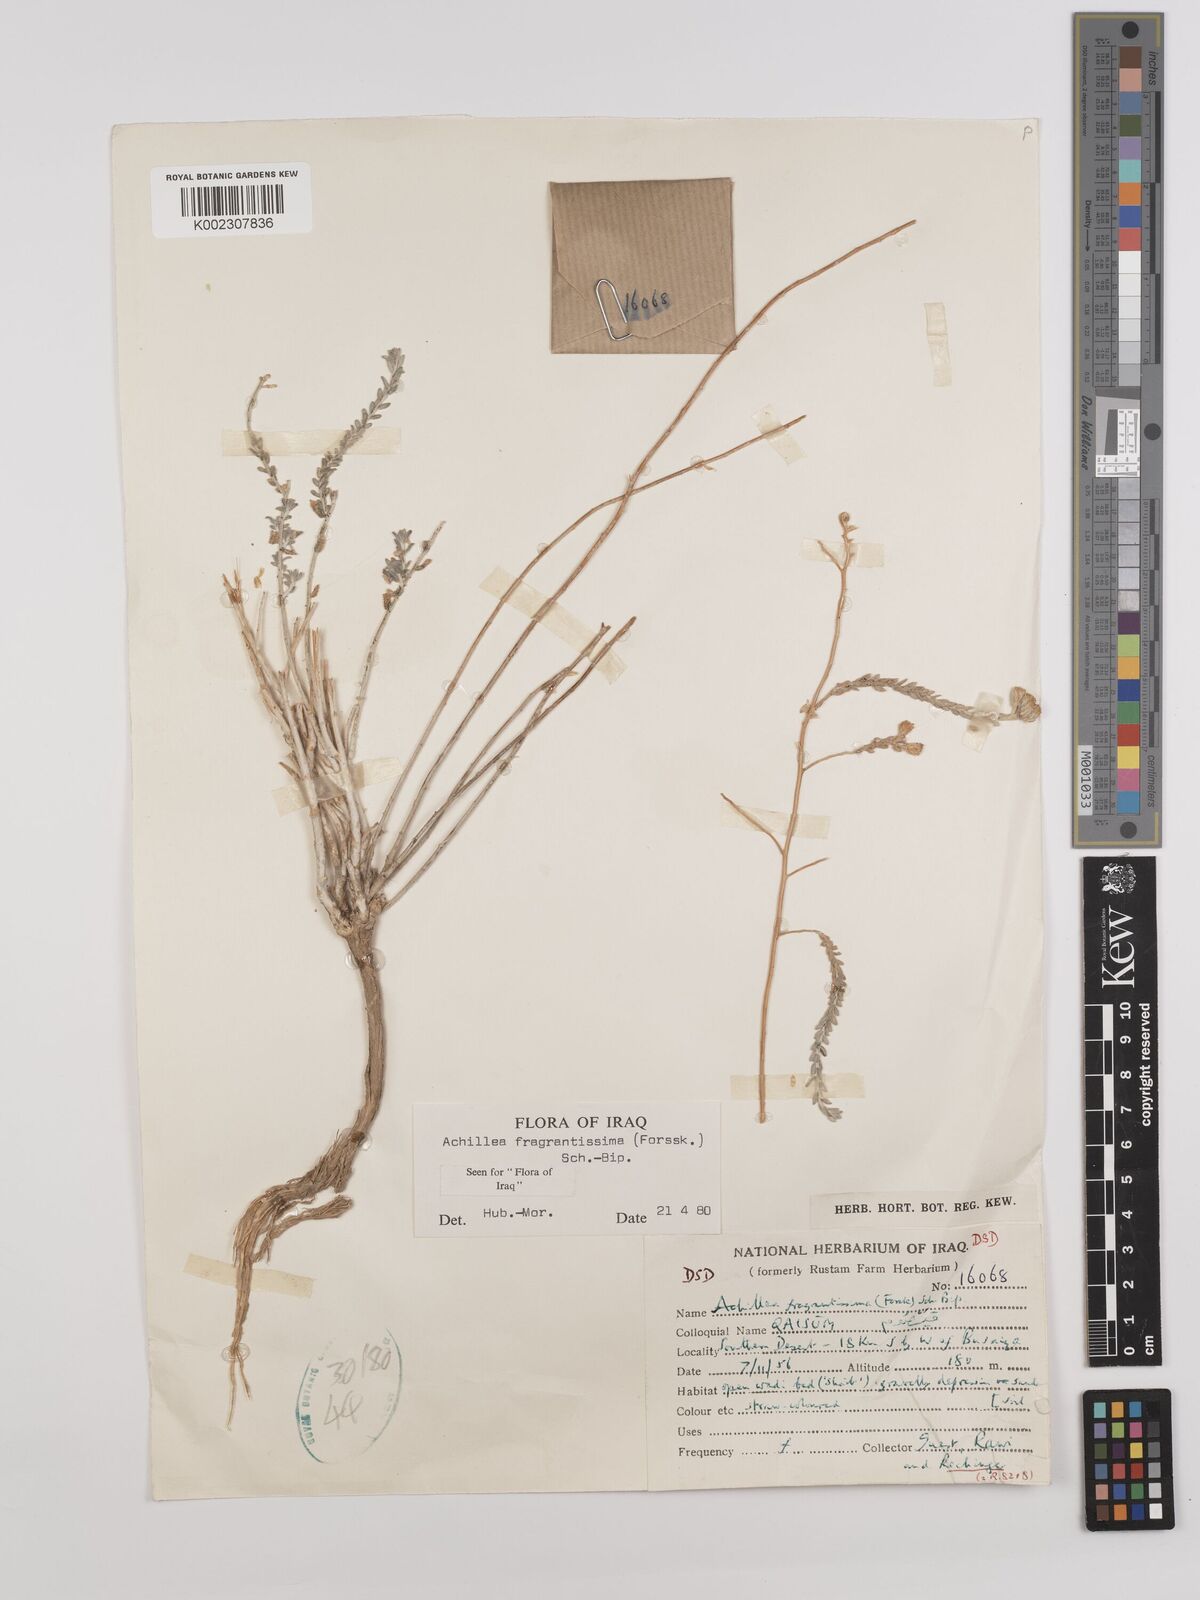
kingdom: Plantae
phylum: Tracheophyta
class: Magnoliopsida
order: Asterales
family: Asteraceae
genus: Achillea
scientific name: Achillea fragrantissima
